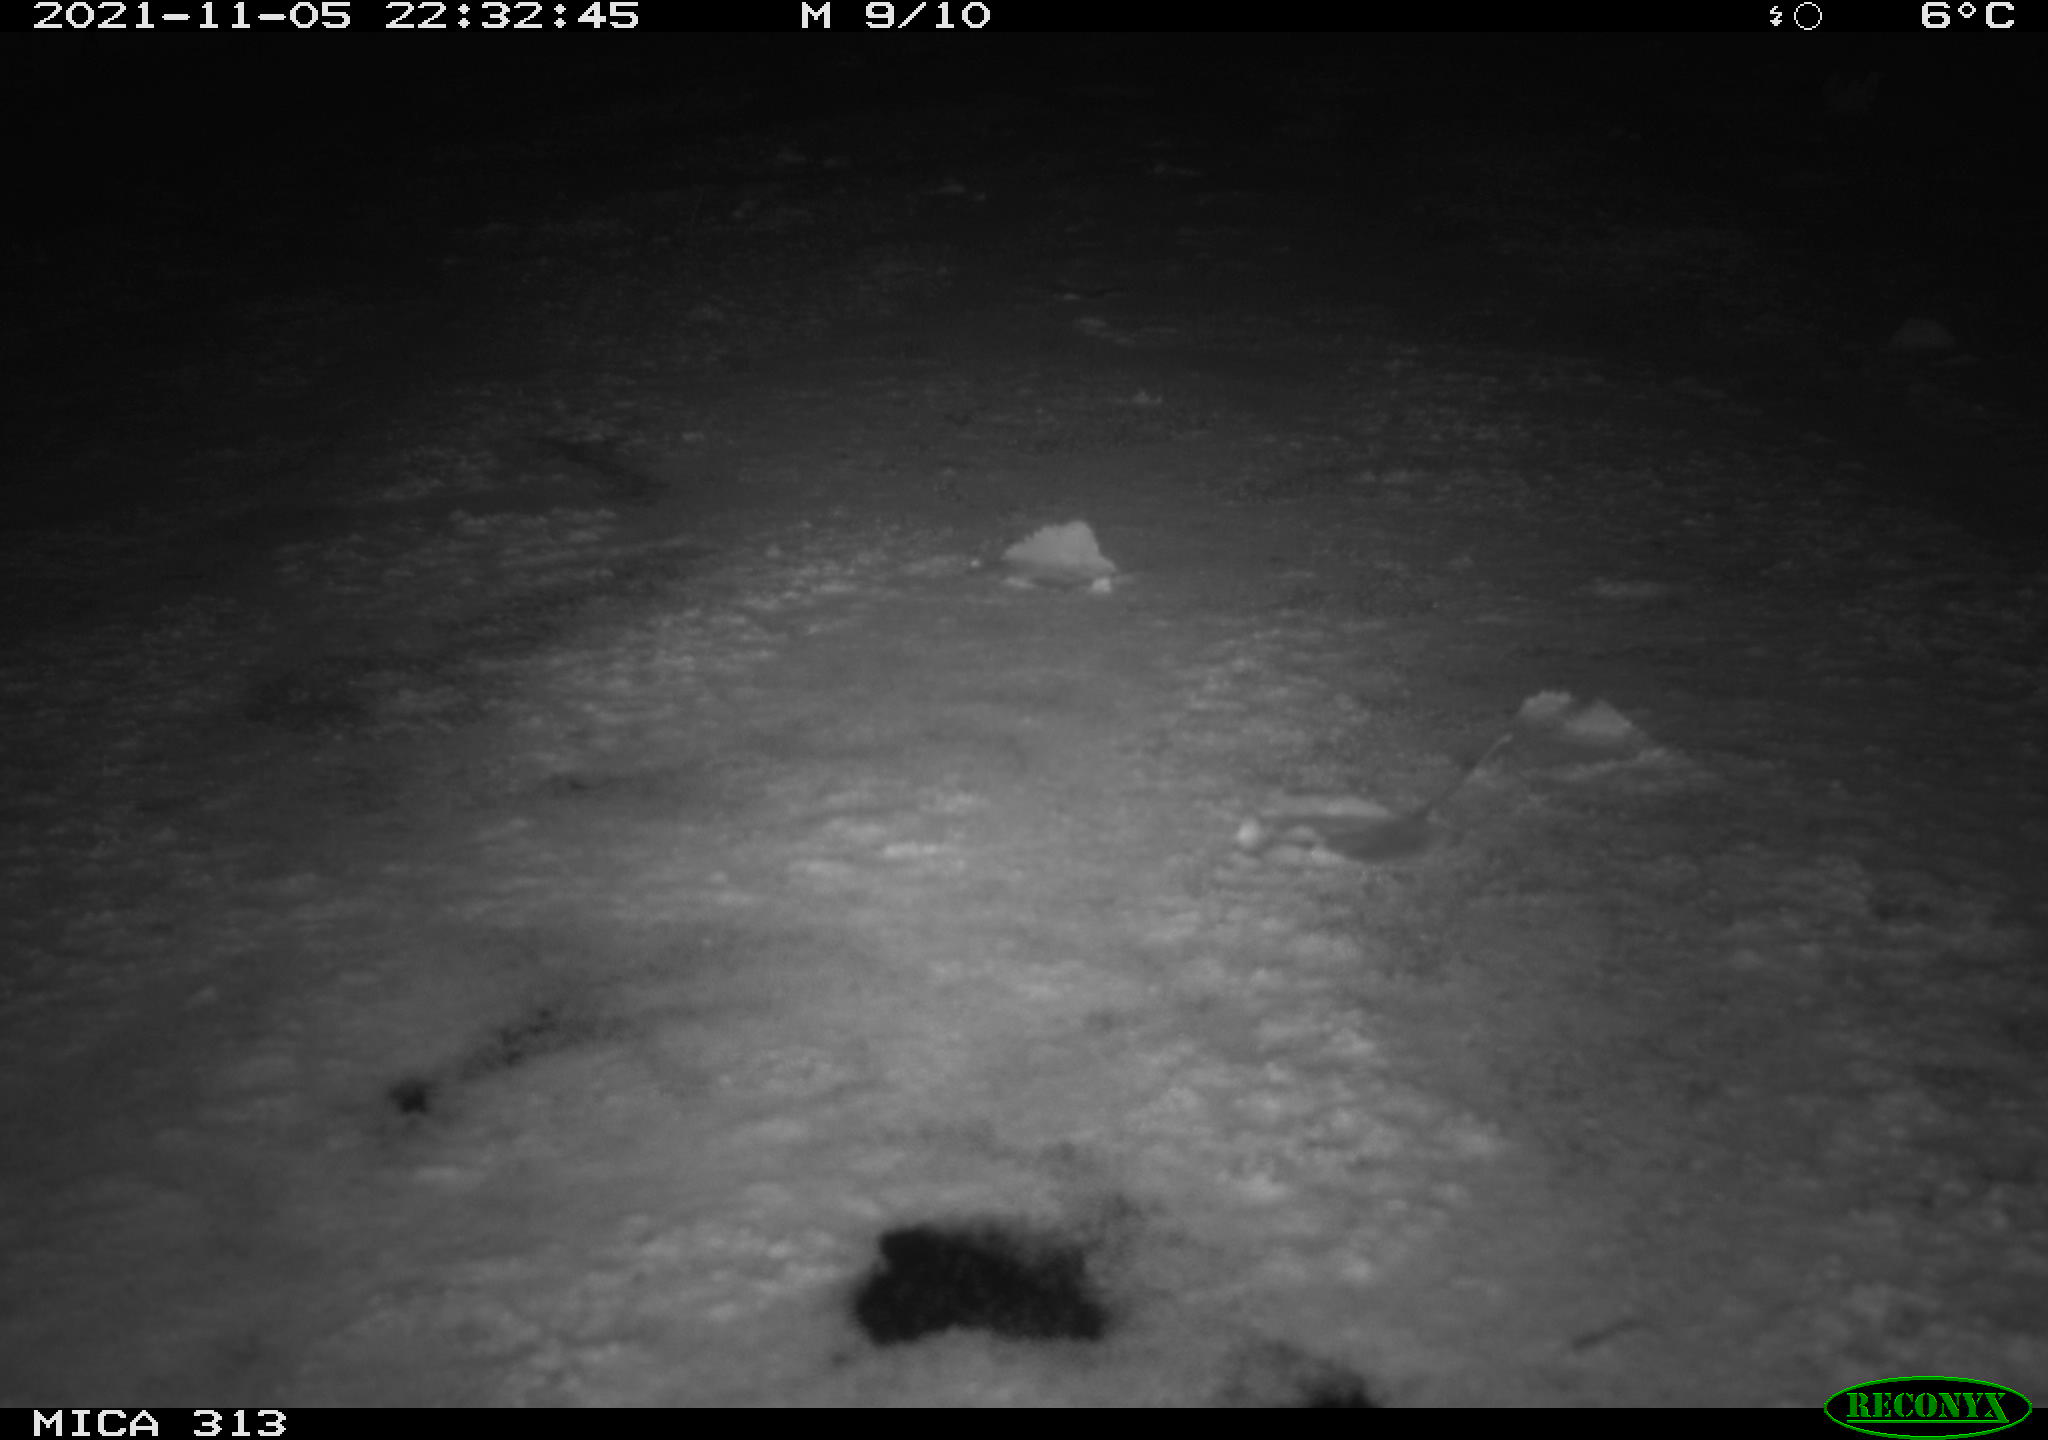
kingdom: Animalia
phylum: Chordata
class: Mammalia
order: Rodentia
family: Muridae
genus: Rattus
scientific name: Rattus norvegicus
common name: Brown rat
